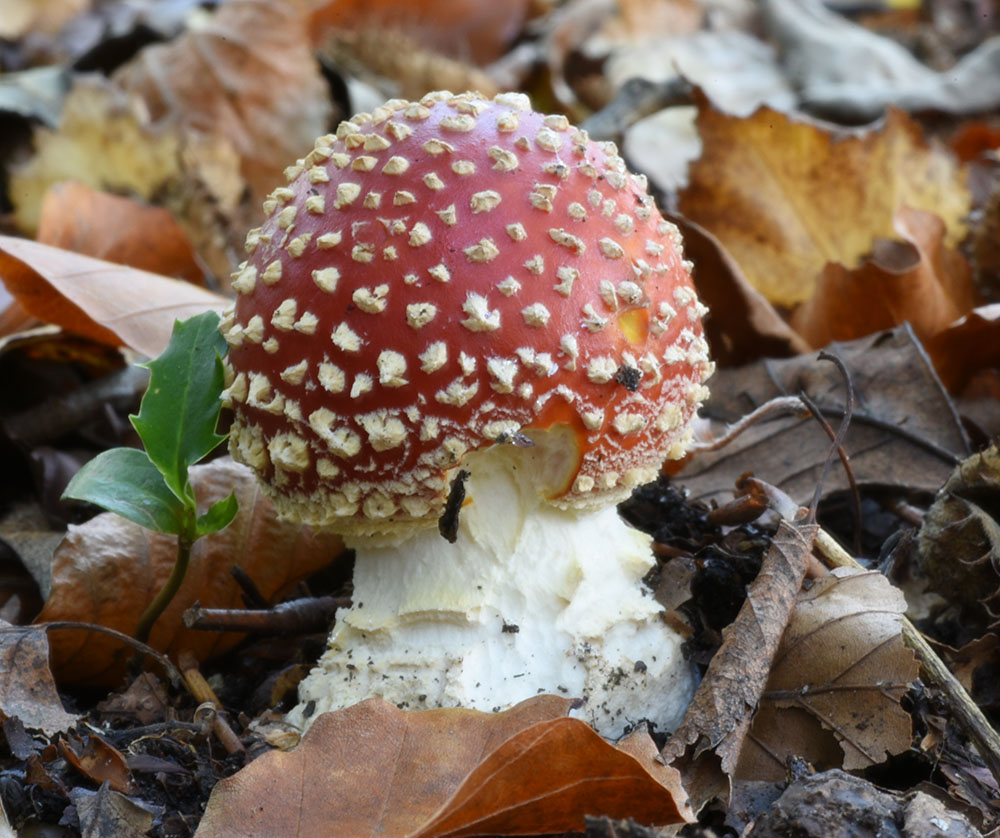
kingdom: Fungi
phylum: Basidiomycota
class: Agaricomycetes
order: Agaricales
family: Amanitaceae
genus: Amanita
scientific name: Amanita muscaria
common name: Fly agaric
